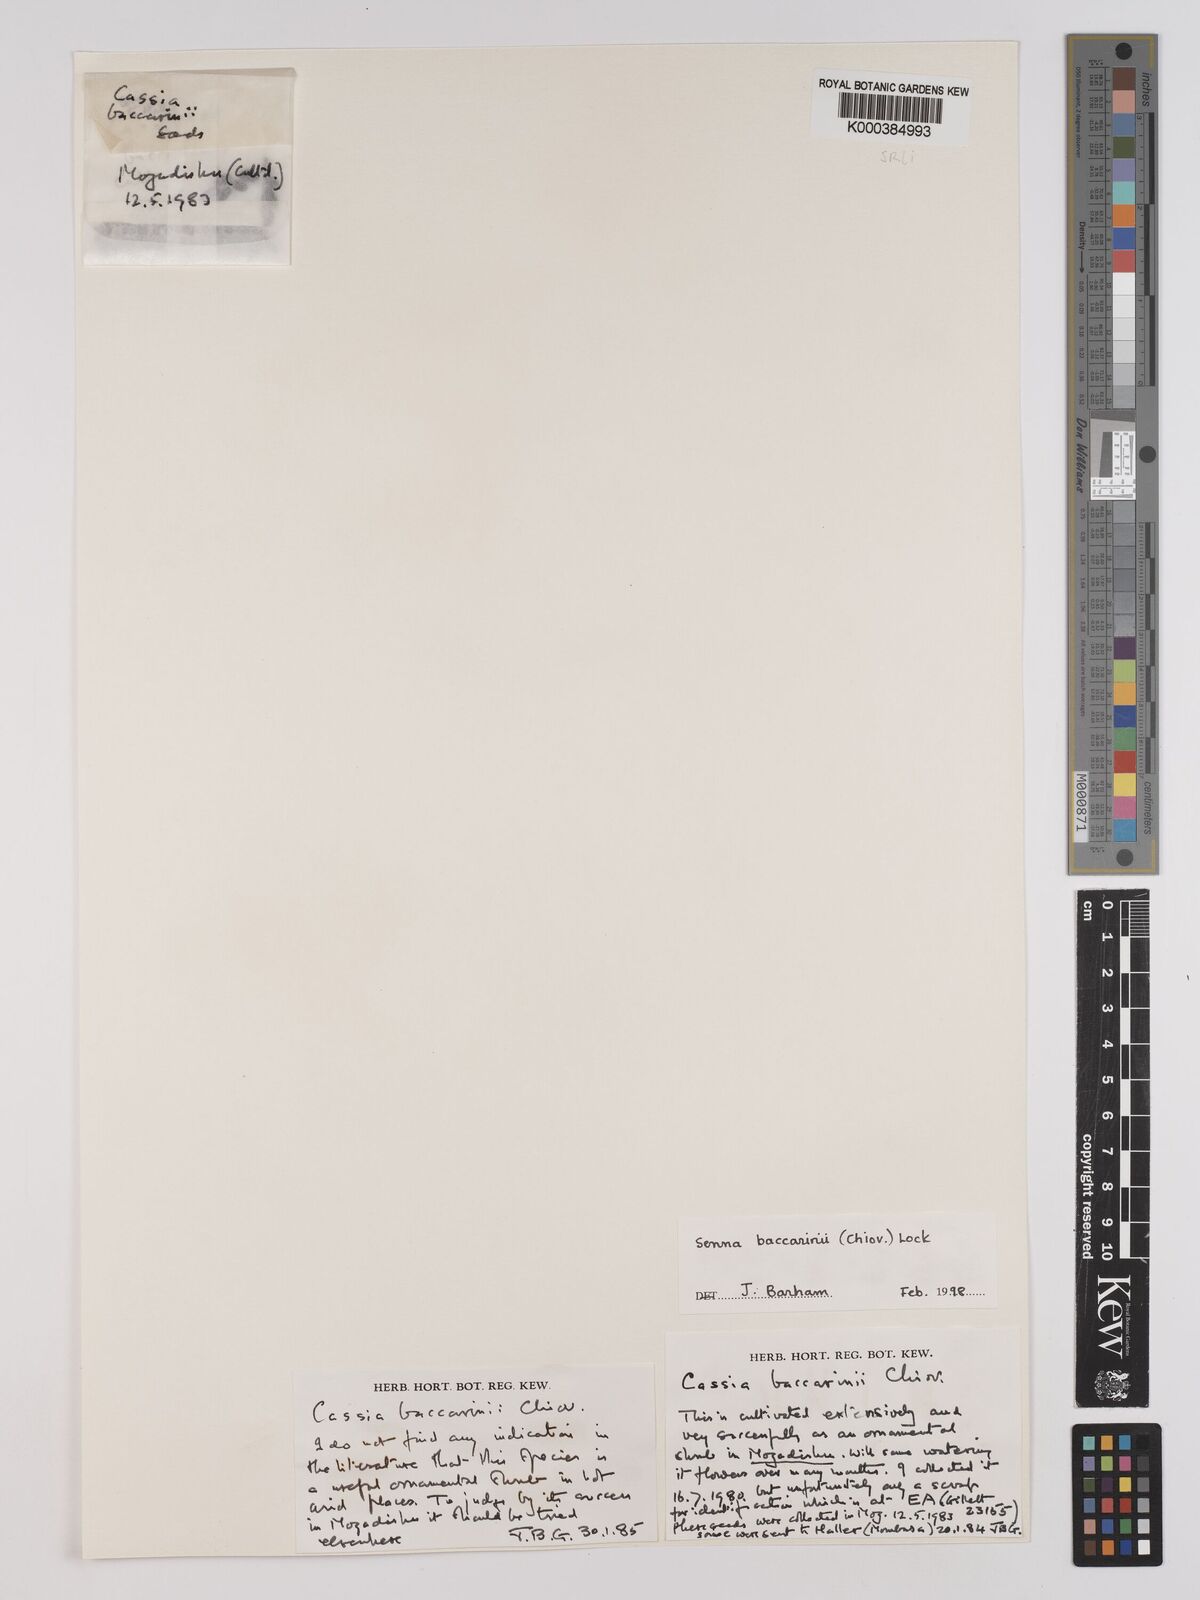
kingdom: Plantae
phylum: Tracheophyta
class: Magnoliopsida
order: Fabales
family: Fabaceae
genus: Senna
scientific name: Senna baccarinii
